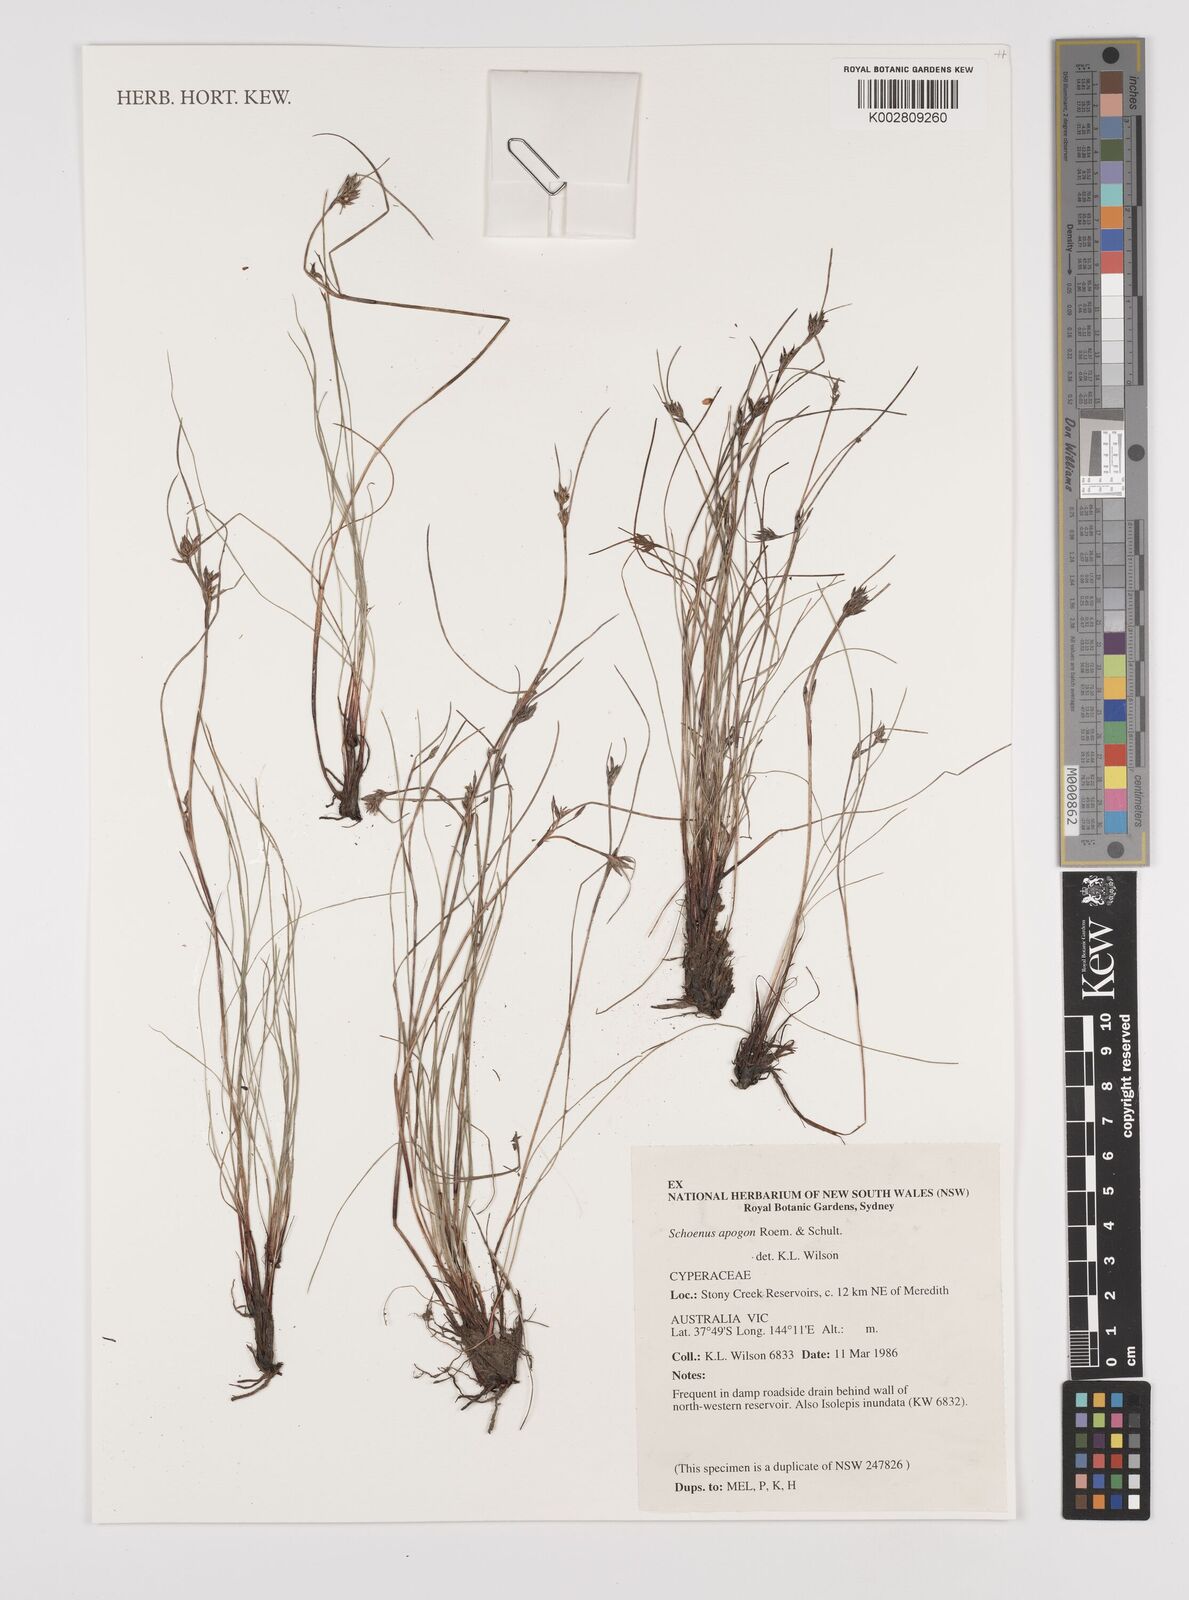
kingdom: Plantae
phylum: Tracheophyta
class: Liliopsida
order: Poales
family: Cyperaceae
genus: Schoenus
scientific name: Schoenus apogon
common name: Smooth bogrush
